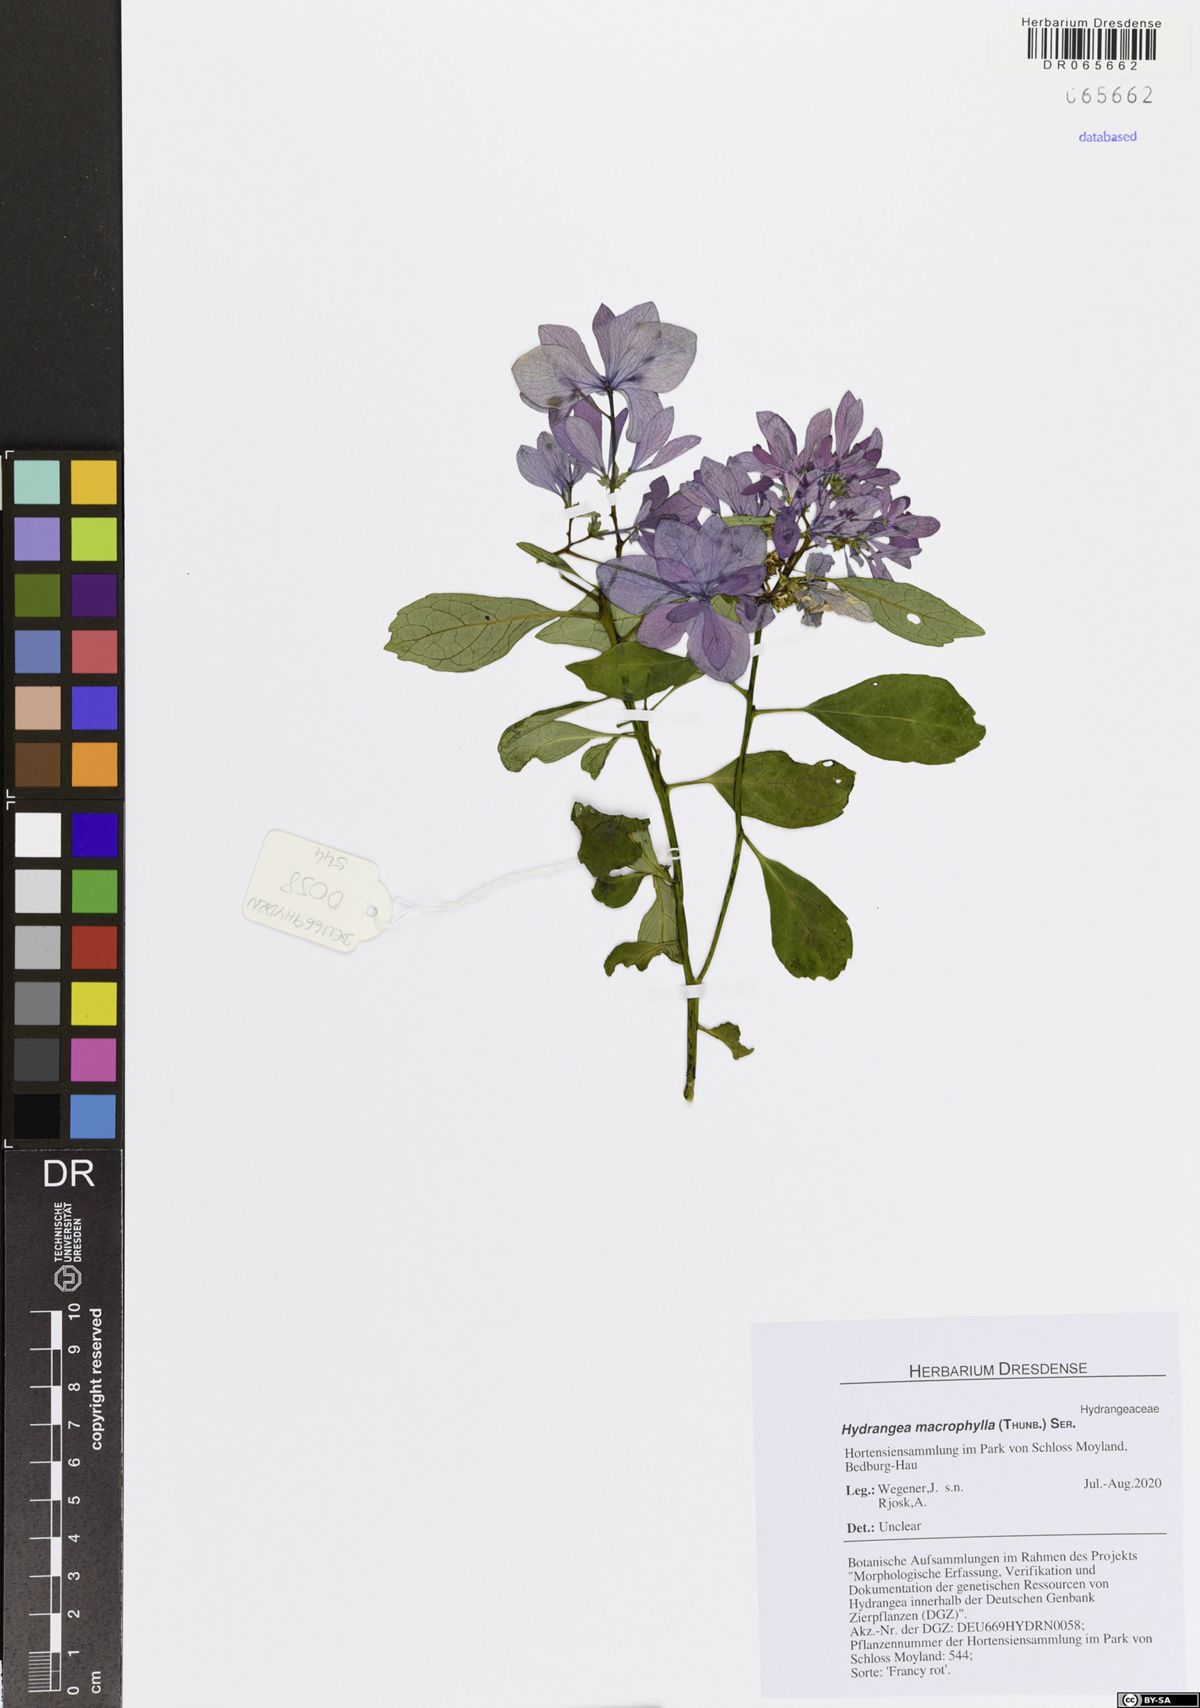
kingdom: Plantae
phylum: Tracheophyta
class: Magnoliopsida
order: Cornales
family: Hydrangeaceae
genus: Hydrangea
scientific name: Hydrangea macrophylla
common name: Hydrangea
